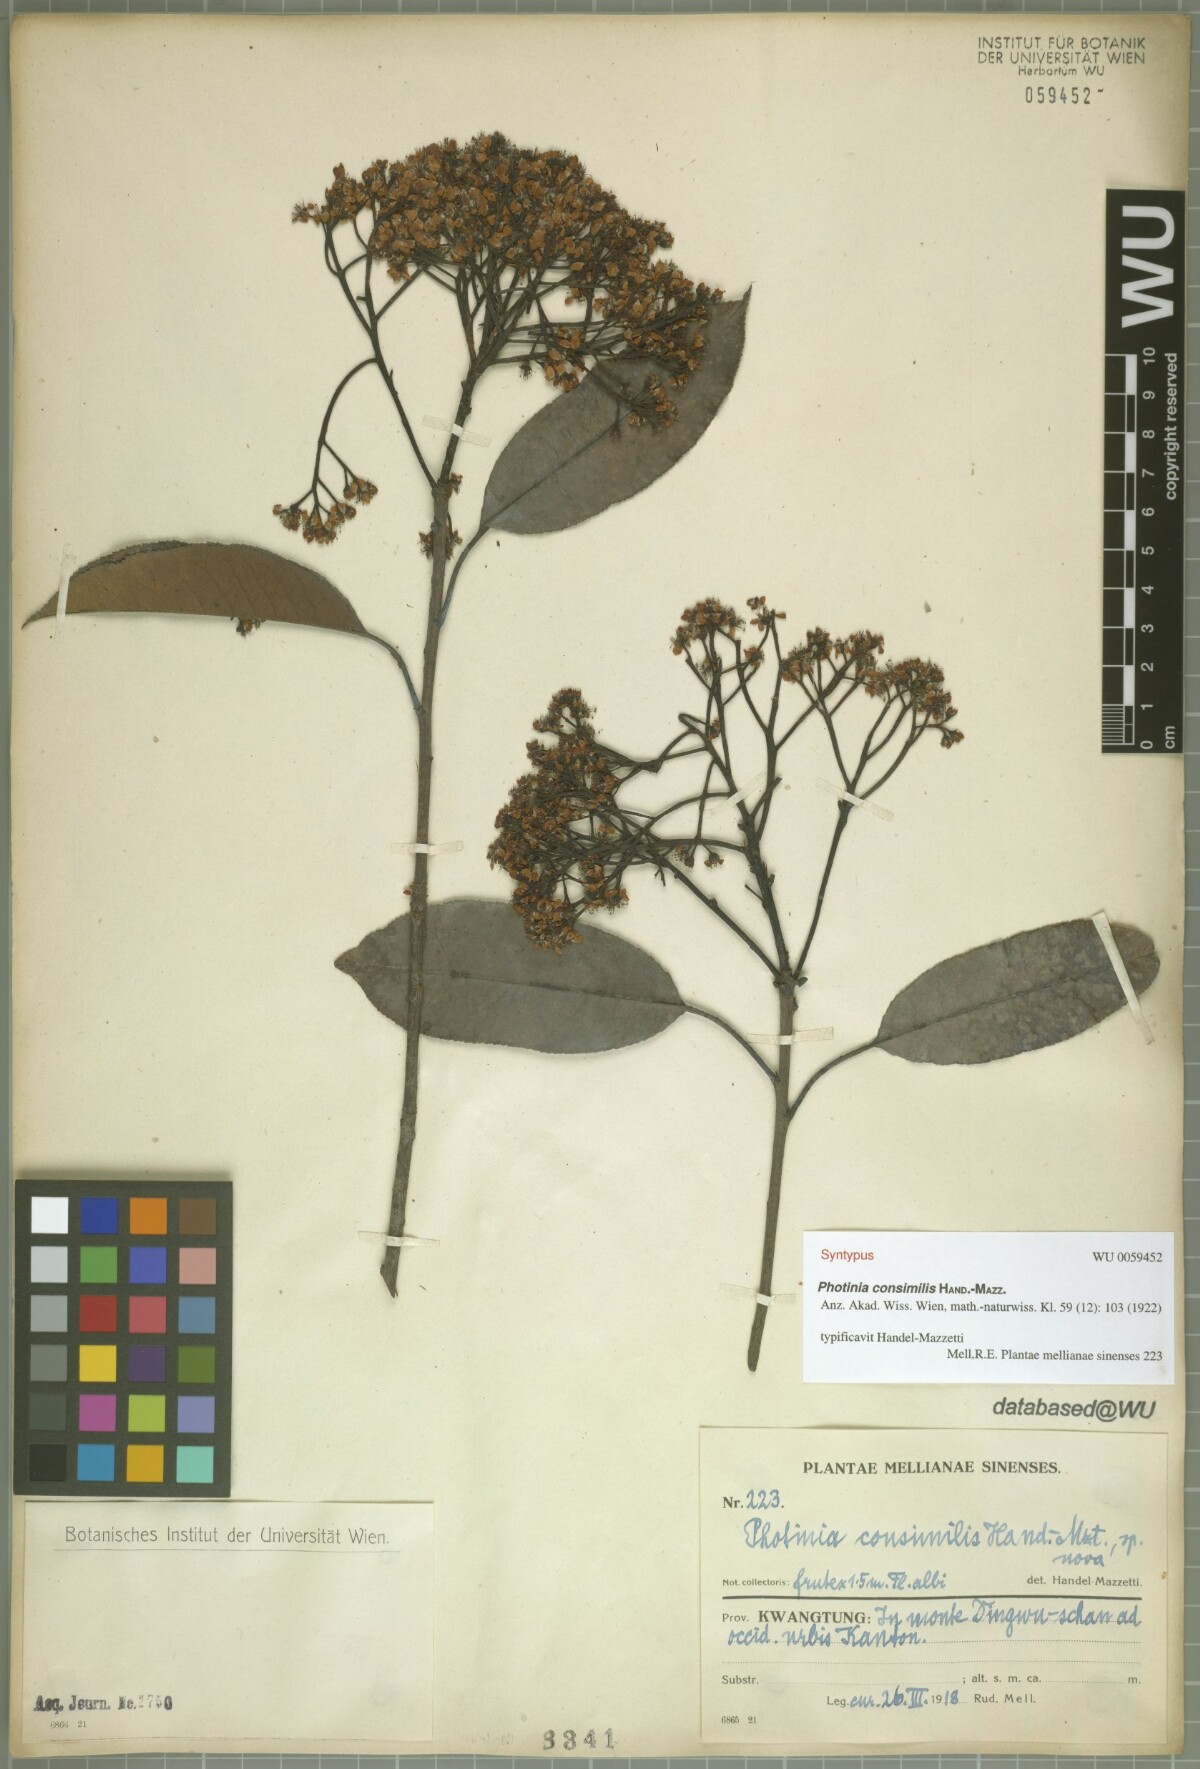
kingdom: Plantae
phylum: Tracheophyta
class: Magnoliopsida
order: Rosales
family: Rosaceae
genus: Photinia
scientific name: Photinia prunifolia
